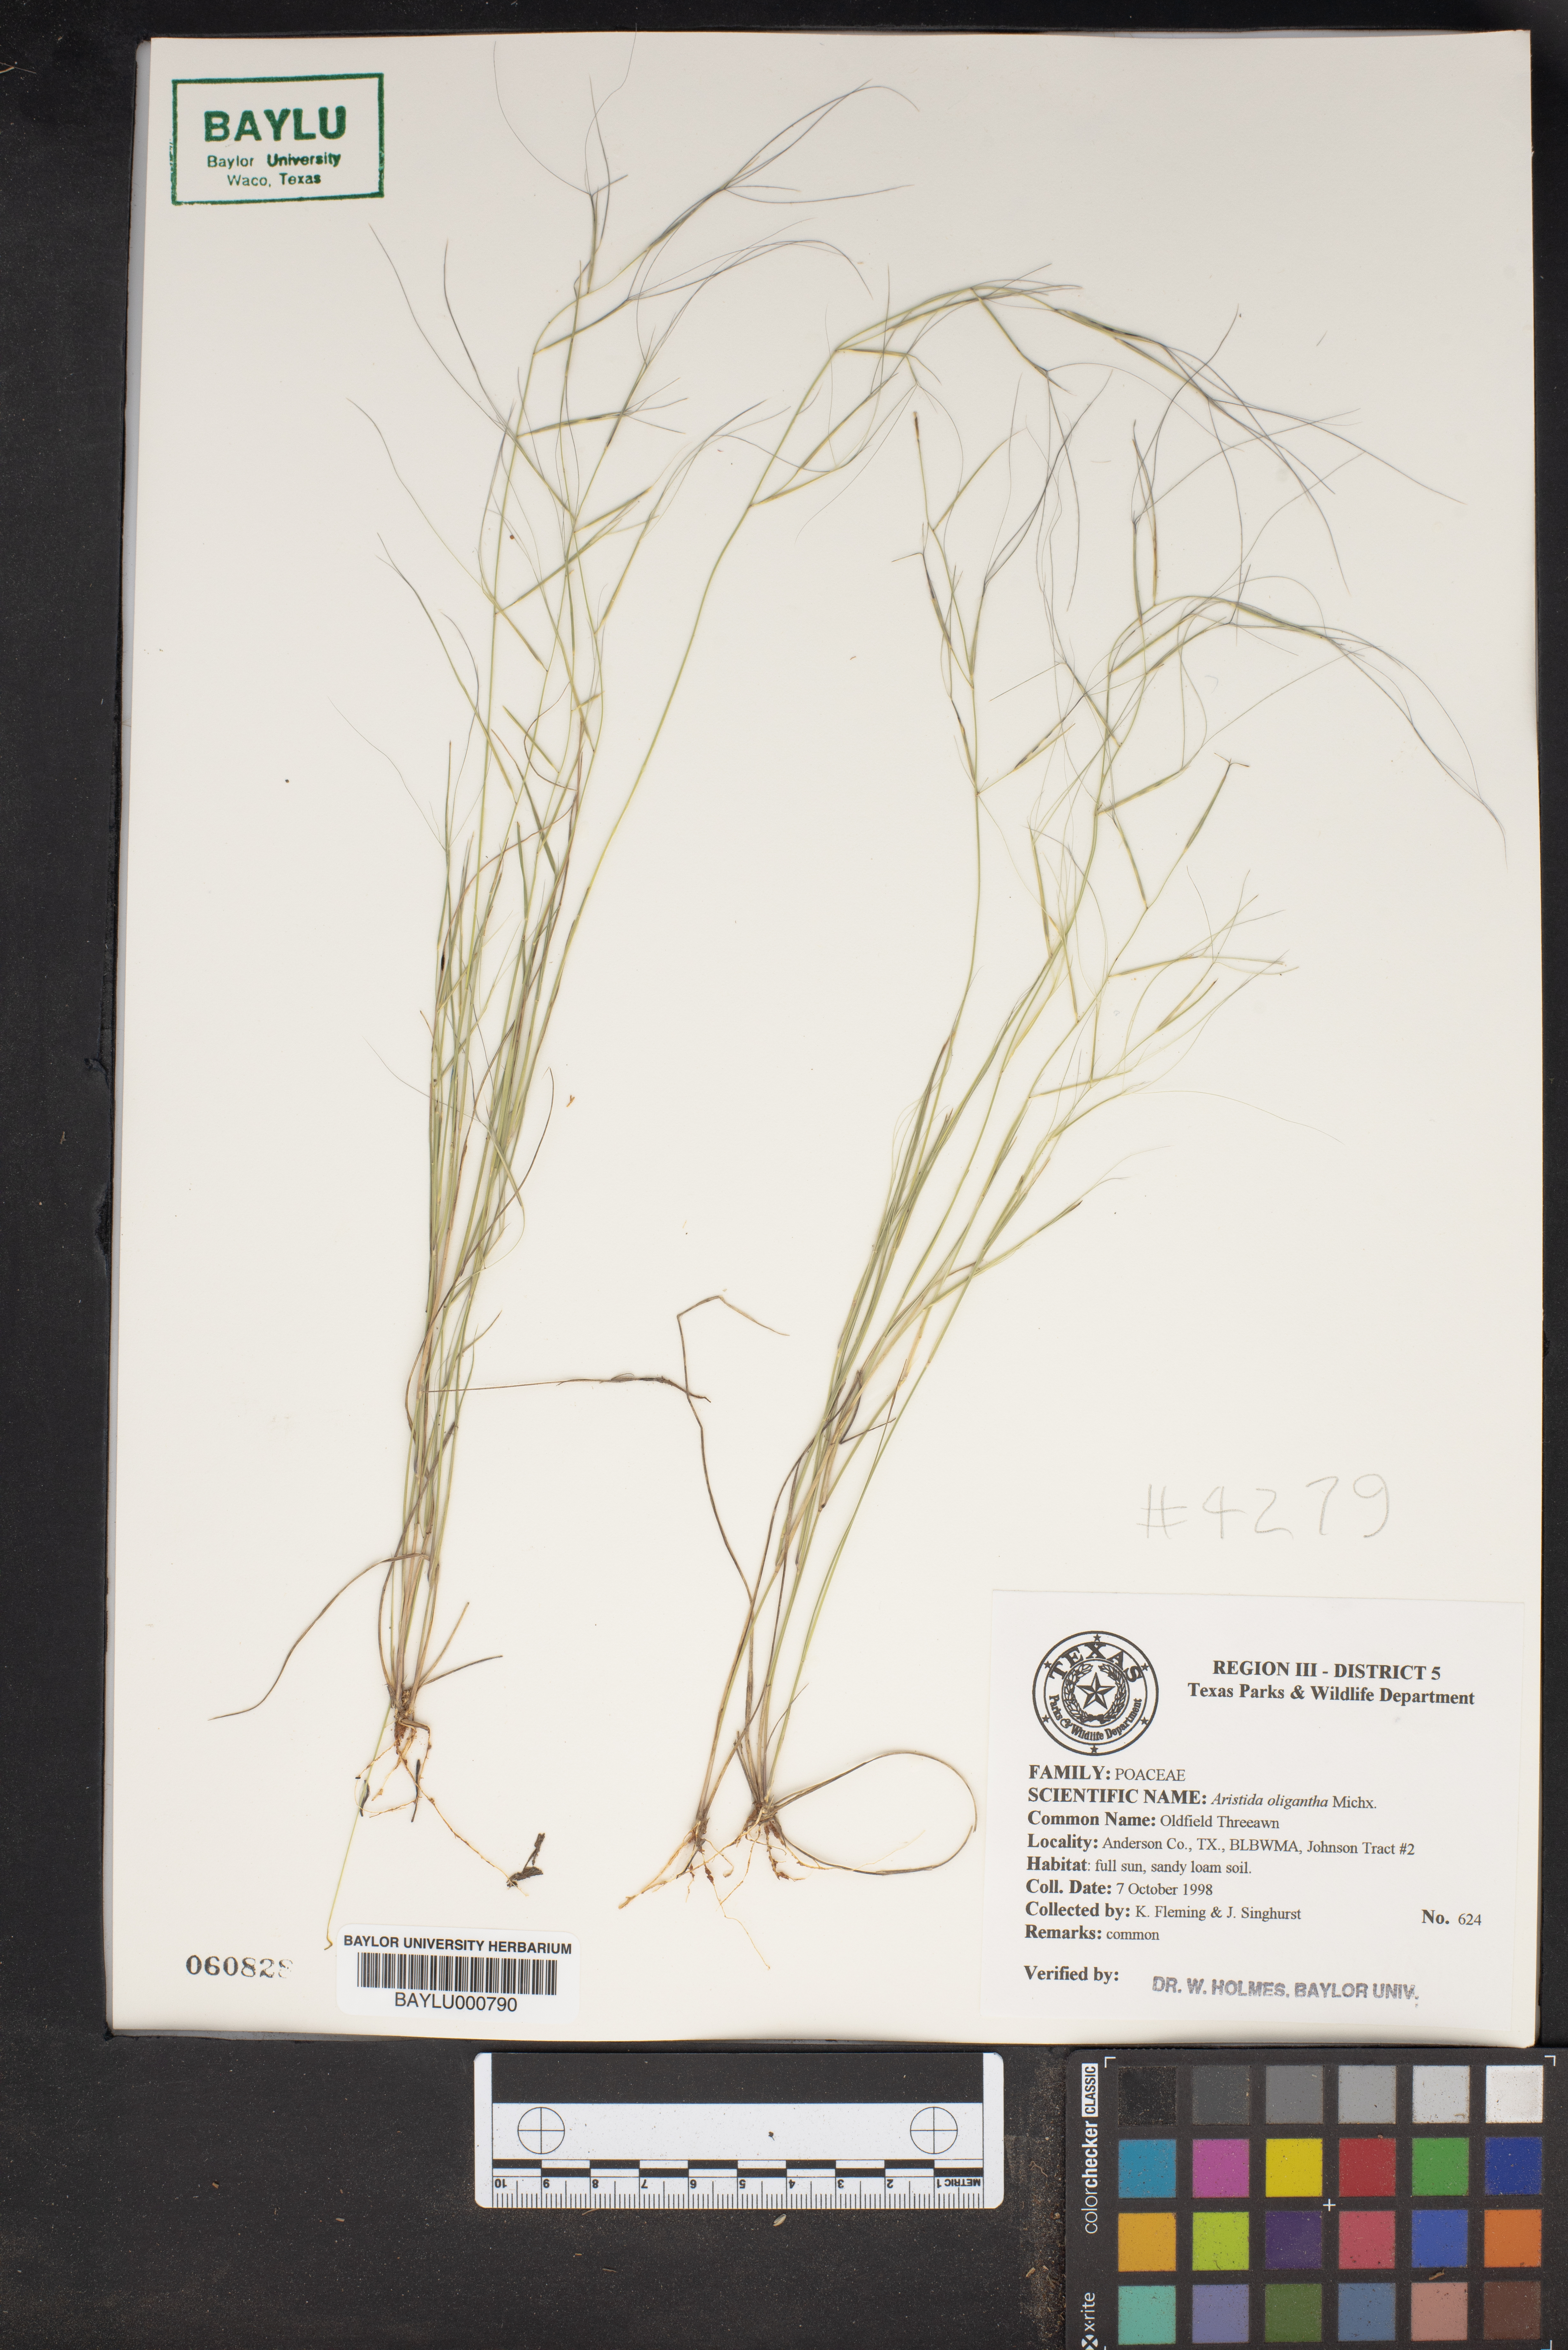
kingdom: Plantae
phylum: Tracheophyta
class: Liliopsida
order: Poales
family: Poaceae
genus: Aristida
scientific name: Aristida oligantha
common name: Few-flowered aristida
